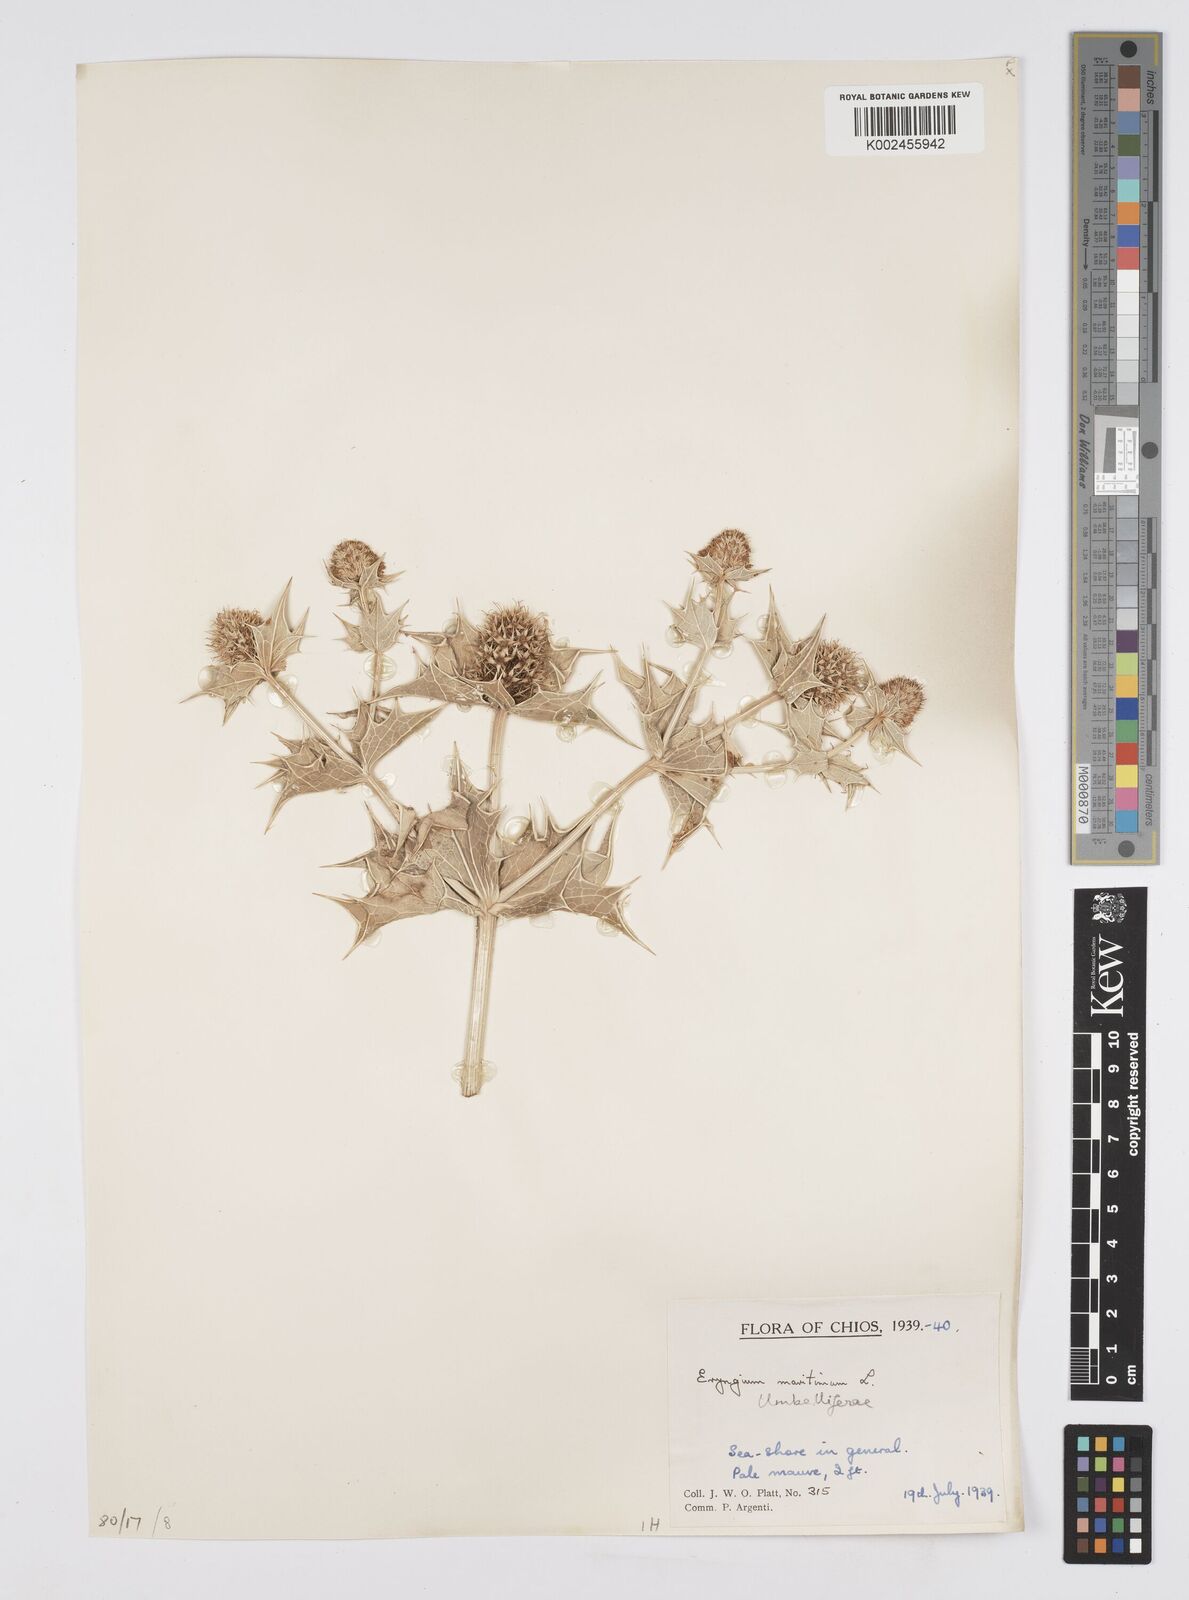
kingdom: Plantae
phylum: Tracheophyta
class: Magnoliopsida
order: Apiales
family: Apiaceae
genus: Eryngium
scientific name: Eryngium maritimum
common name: Sea-holly
